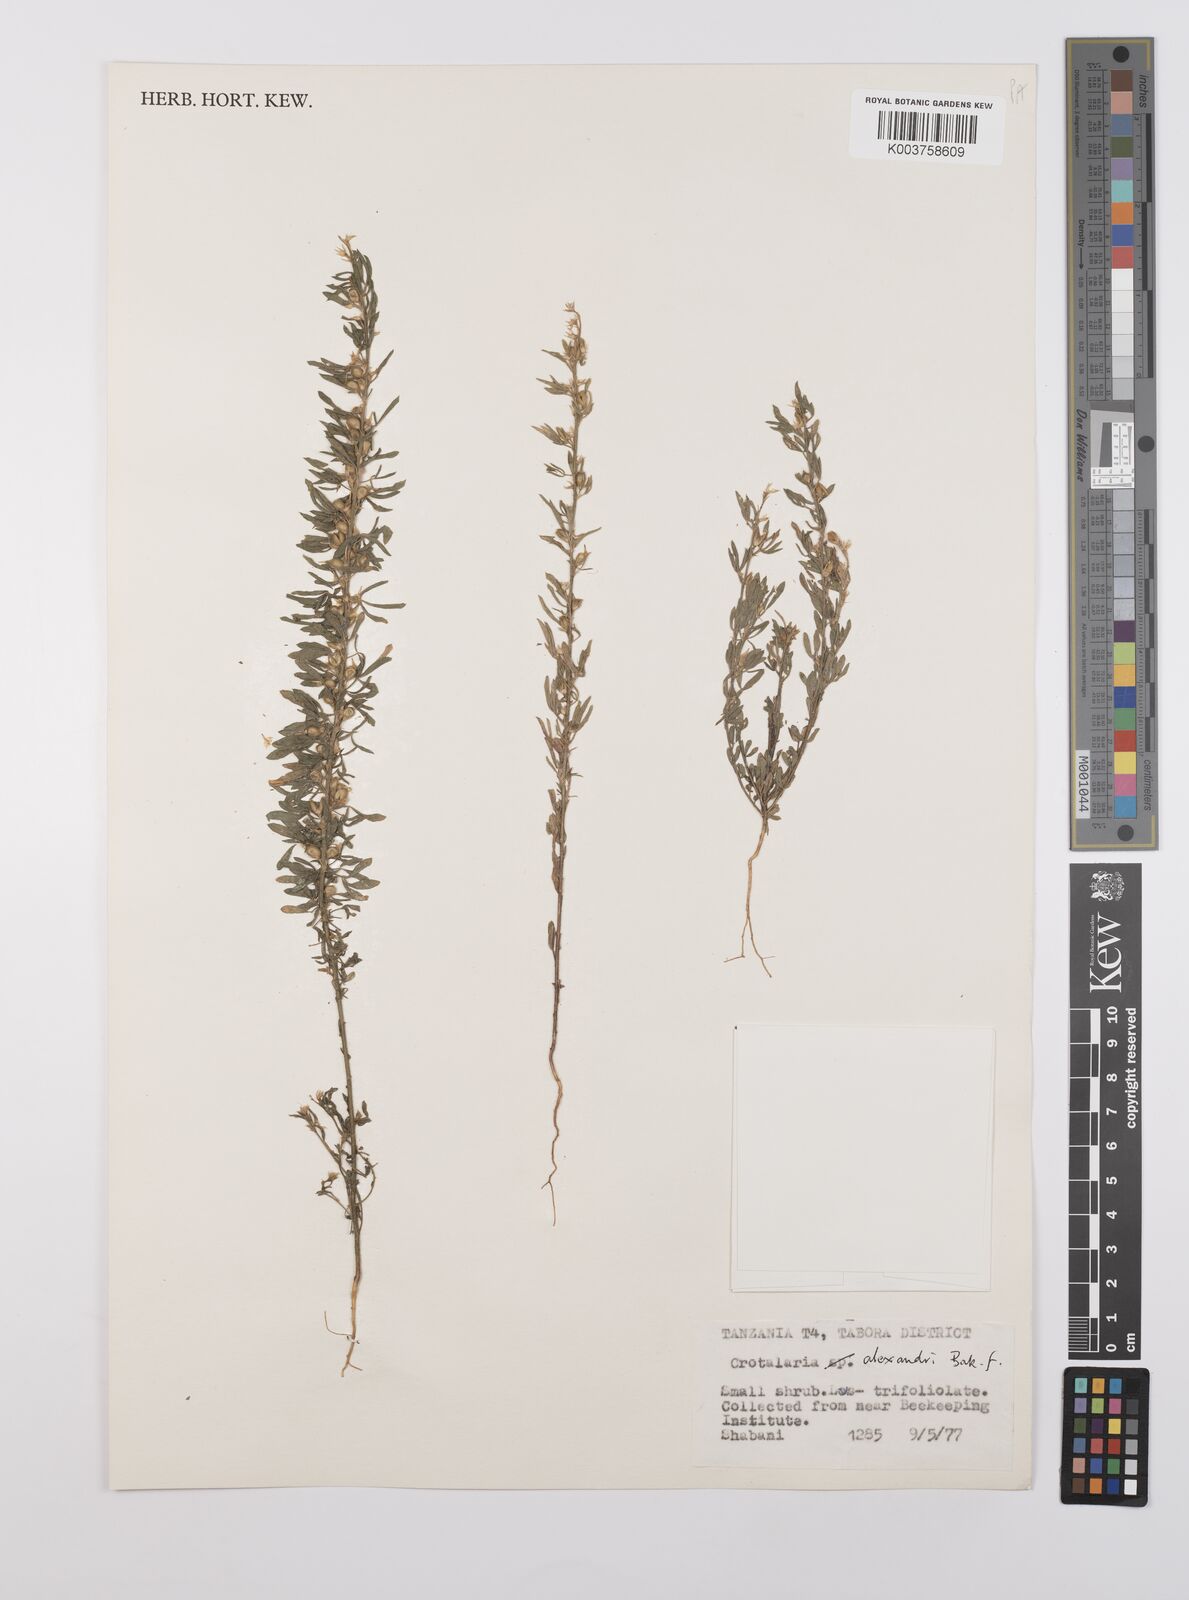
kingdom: Plantae
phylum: Tracheophyta
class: Magnoliopsida
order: Fabales
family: Fabaceae
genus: Crotalaria
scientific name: Crotalaria alexandri
